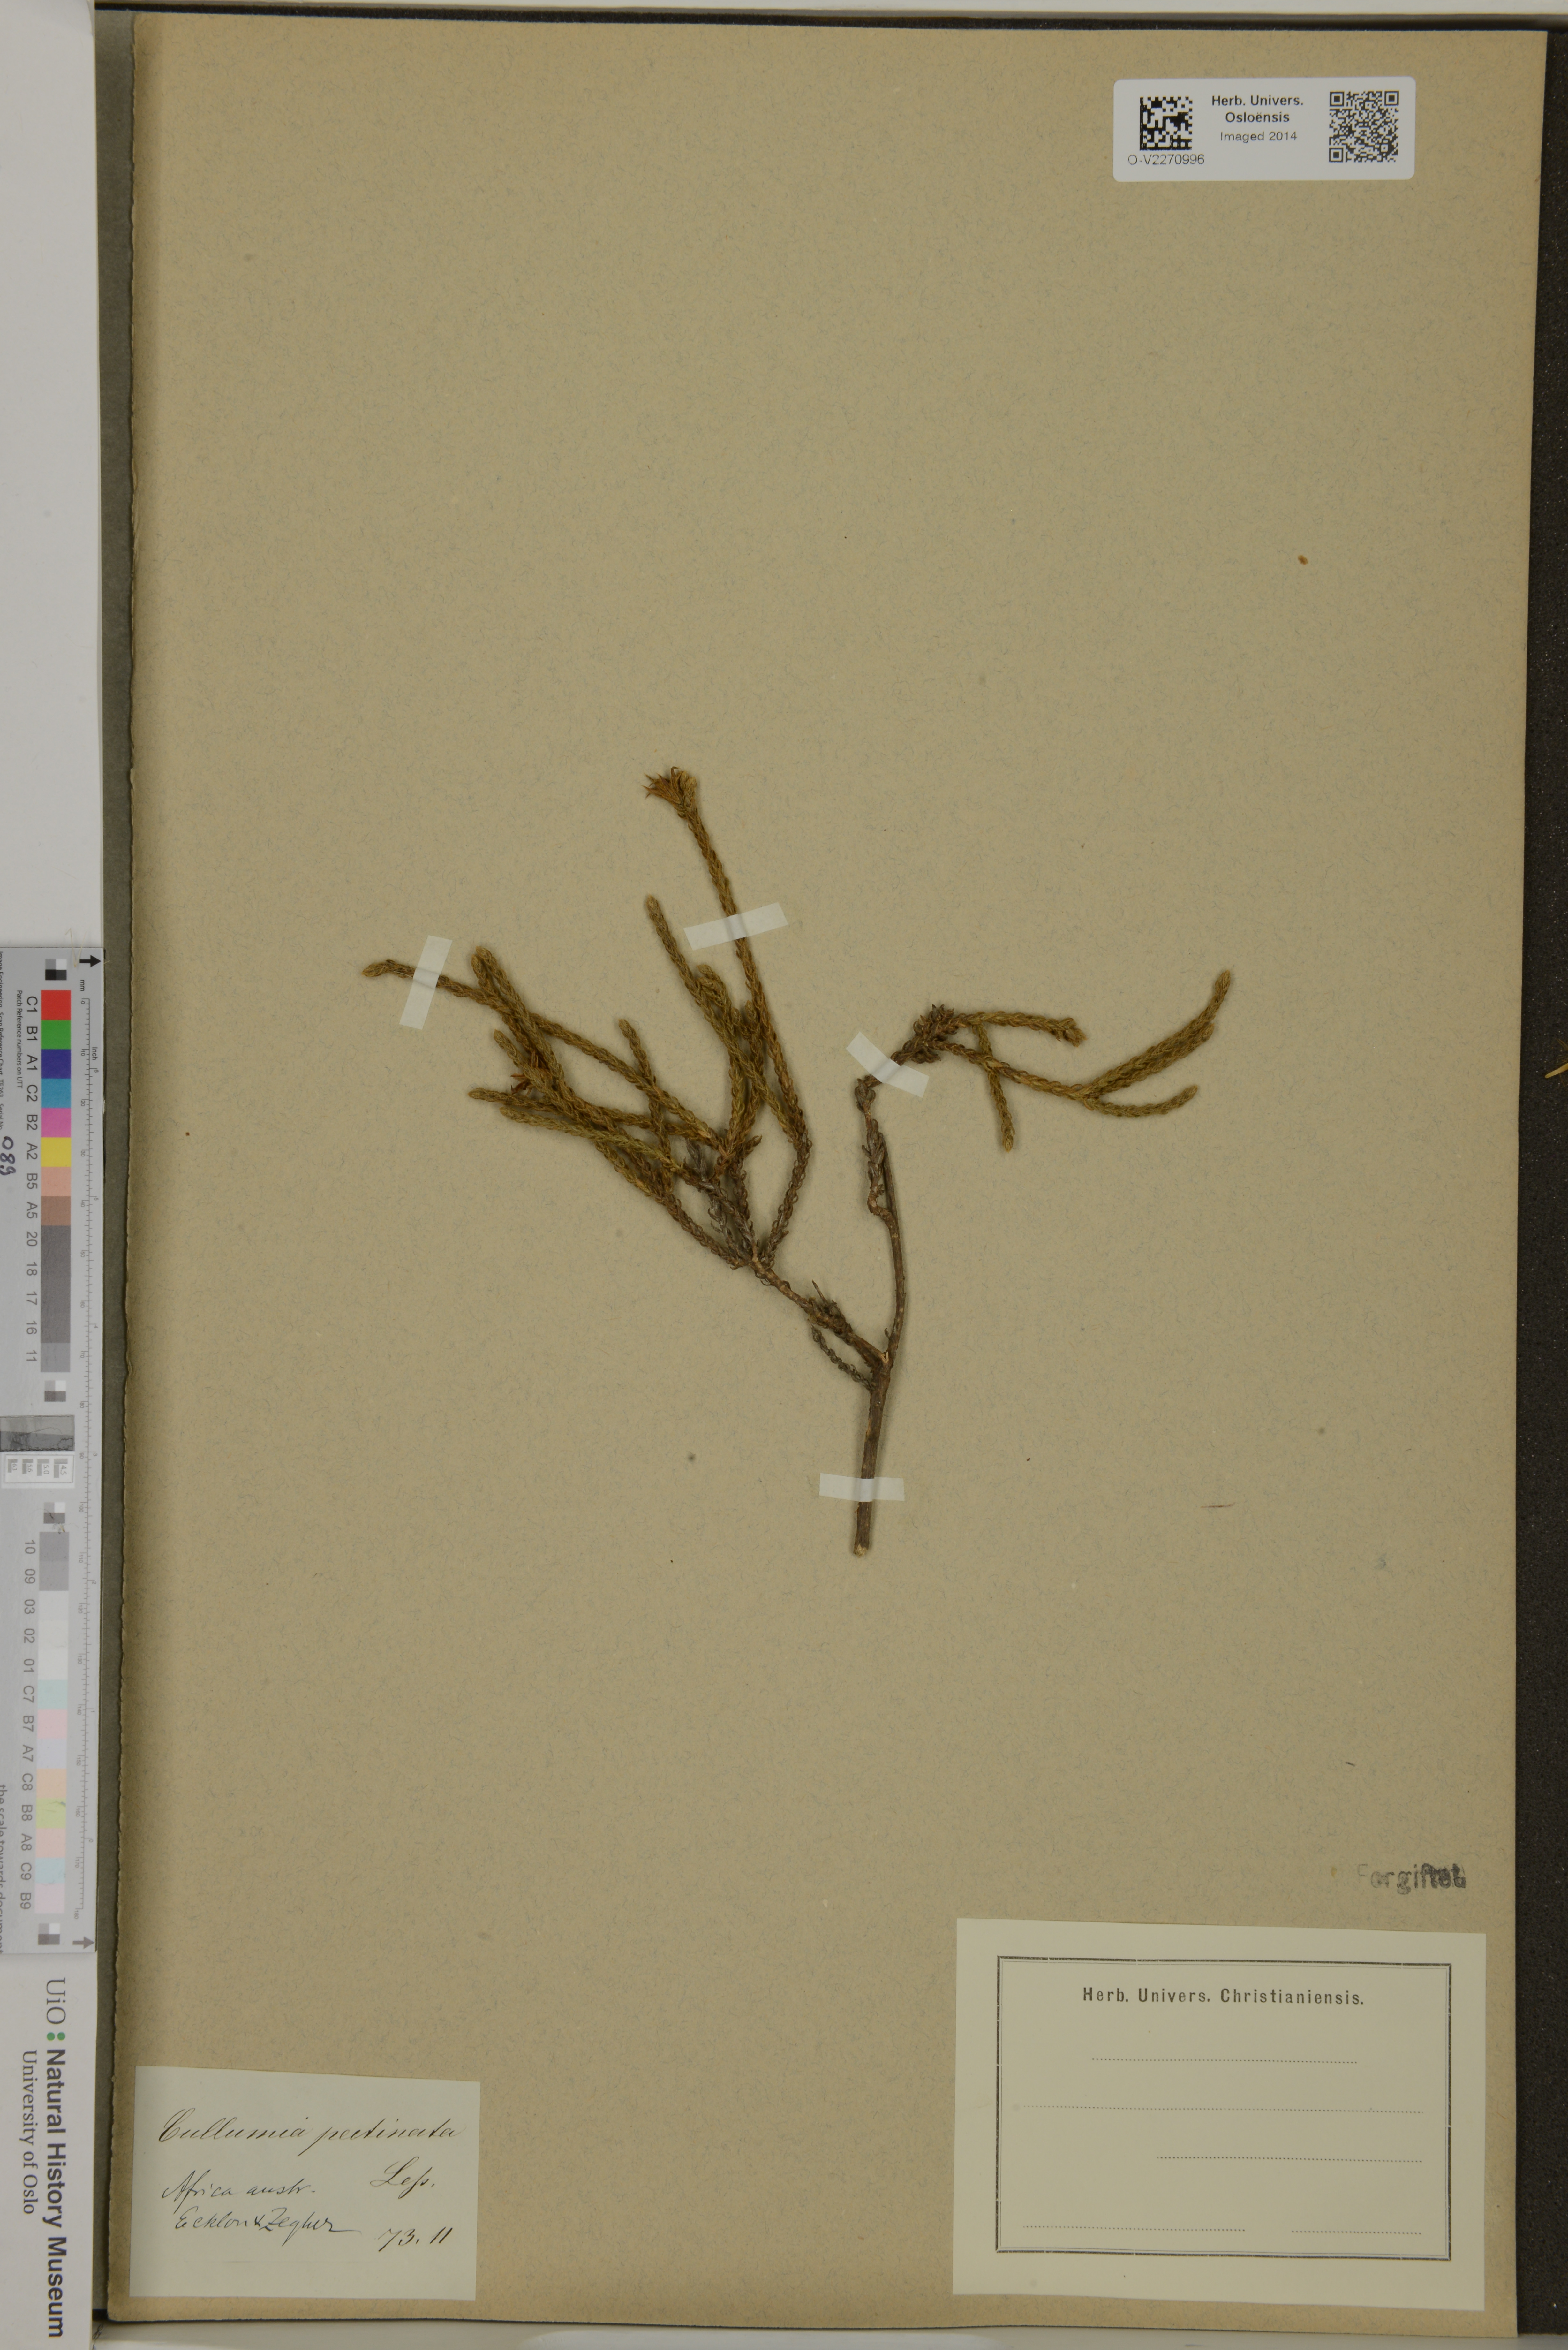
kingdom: Plantae
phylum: Tracheophyta
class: Magnoliopsida
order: Asterales
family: Asteraceae
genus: Cullumia
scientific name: Cullumia pectinata
